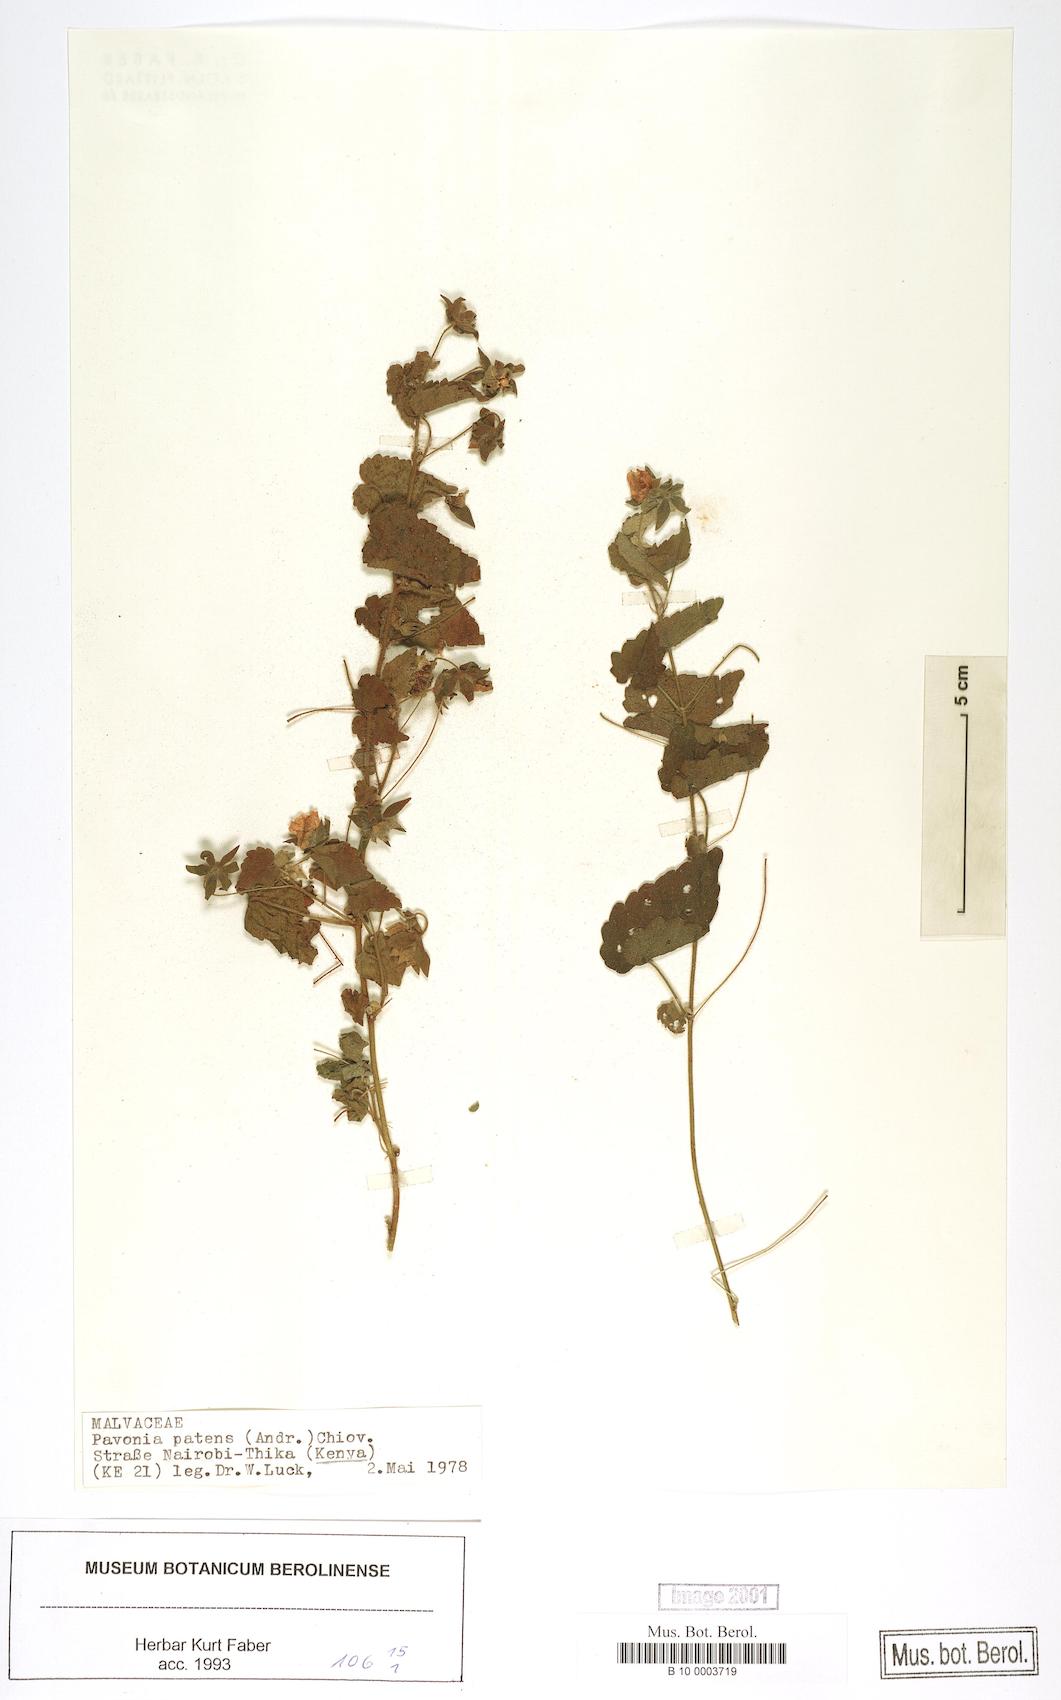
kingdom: Plantae
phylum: Tracheophyta
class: Magnoliopsida
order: Malvales
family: Malvaceae
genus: Abutilon
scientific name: Abutilon mauritianum
